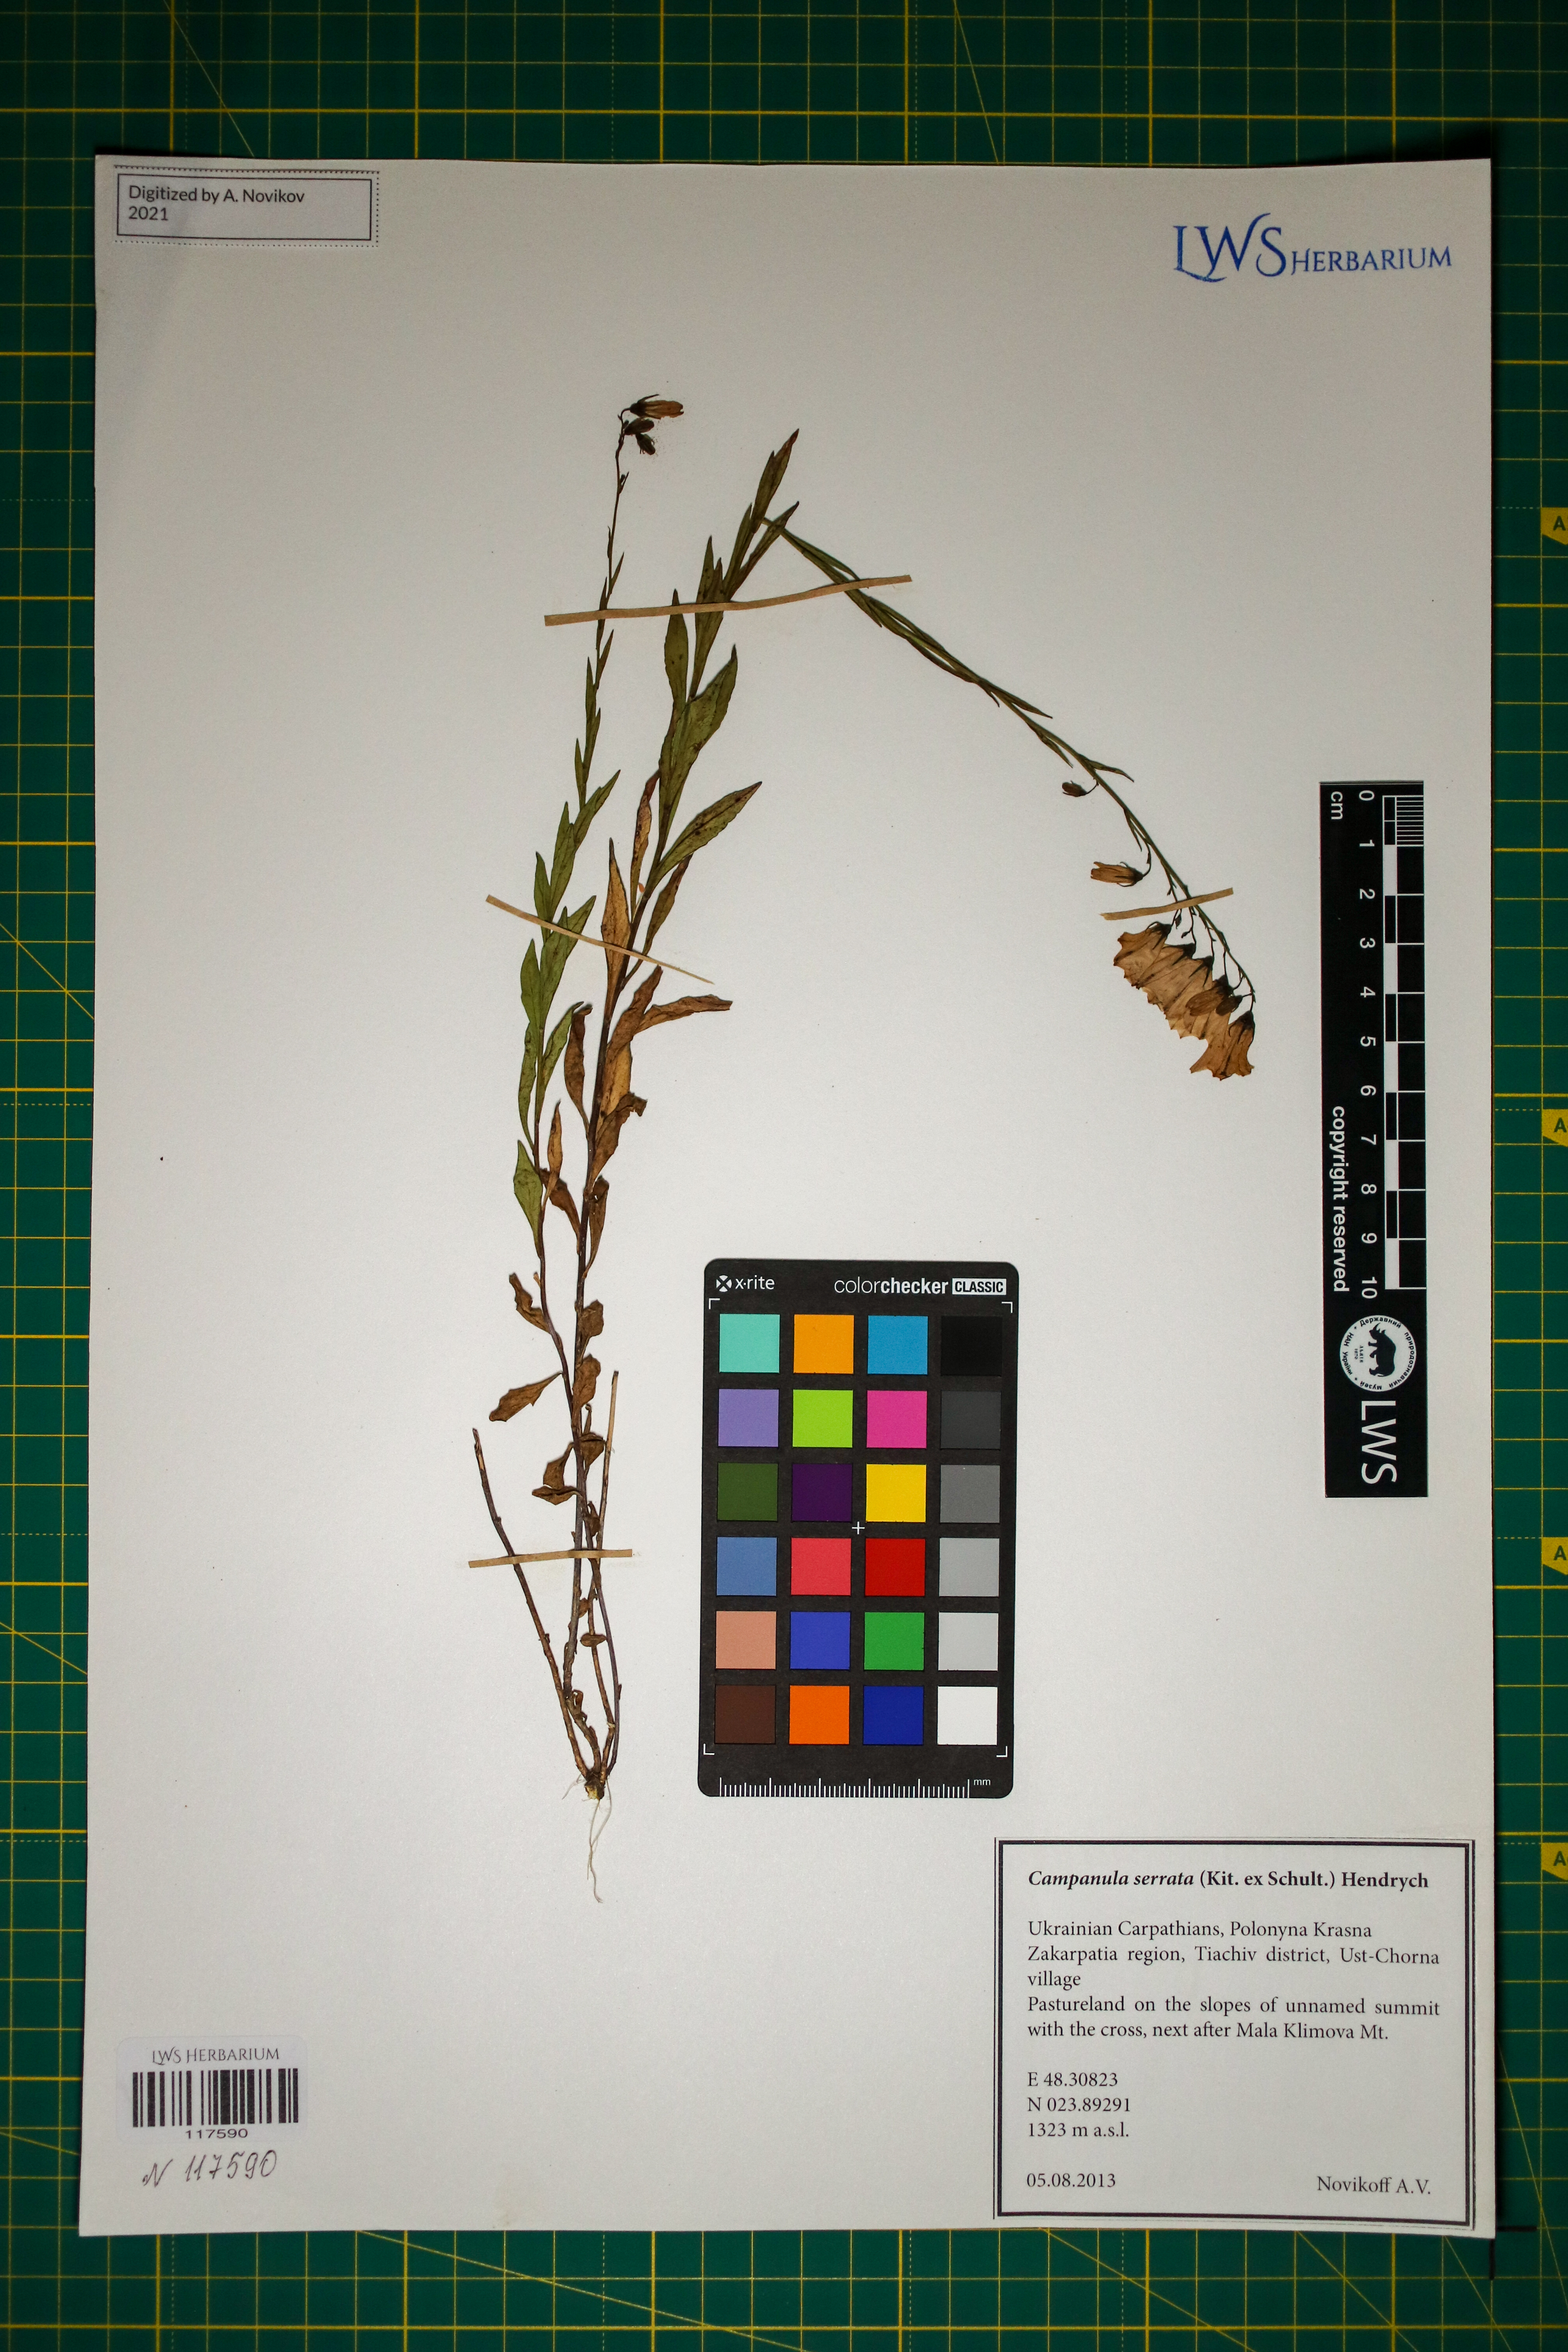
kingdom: Plantae
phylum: Tracheophyta
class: Magnoliopsida
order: Asterales
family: Campanulaceae
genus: Campanula
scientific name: Campanula serrata
